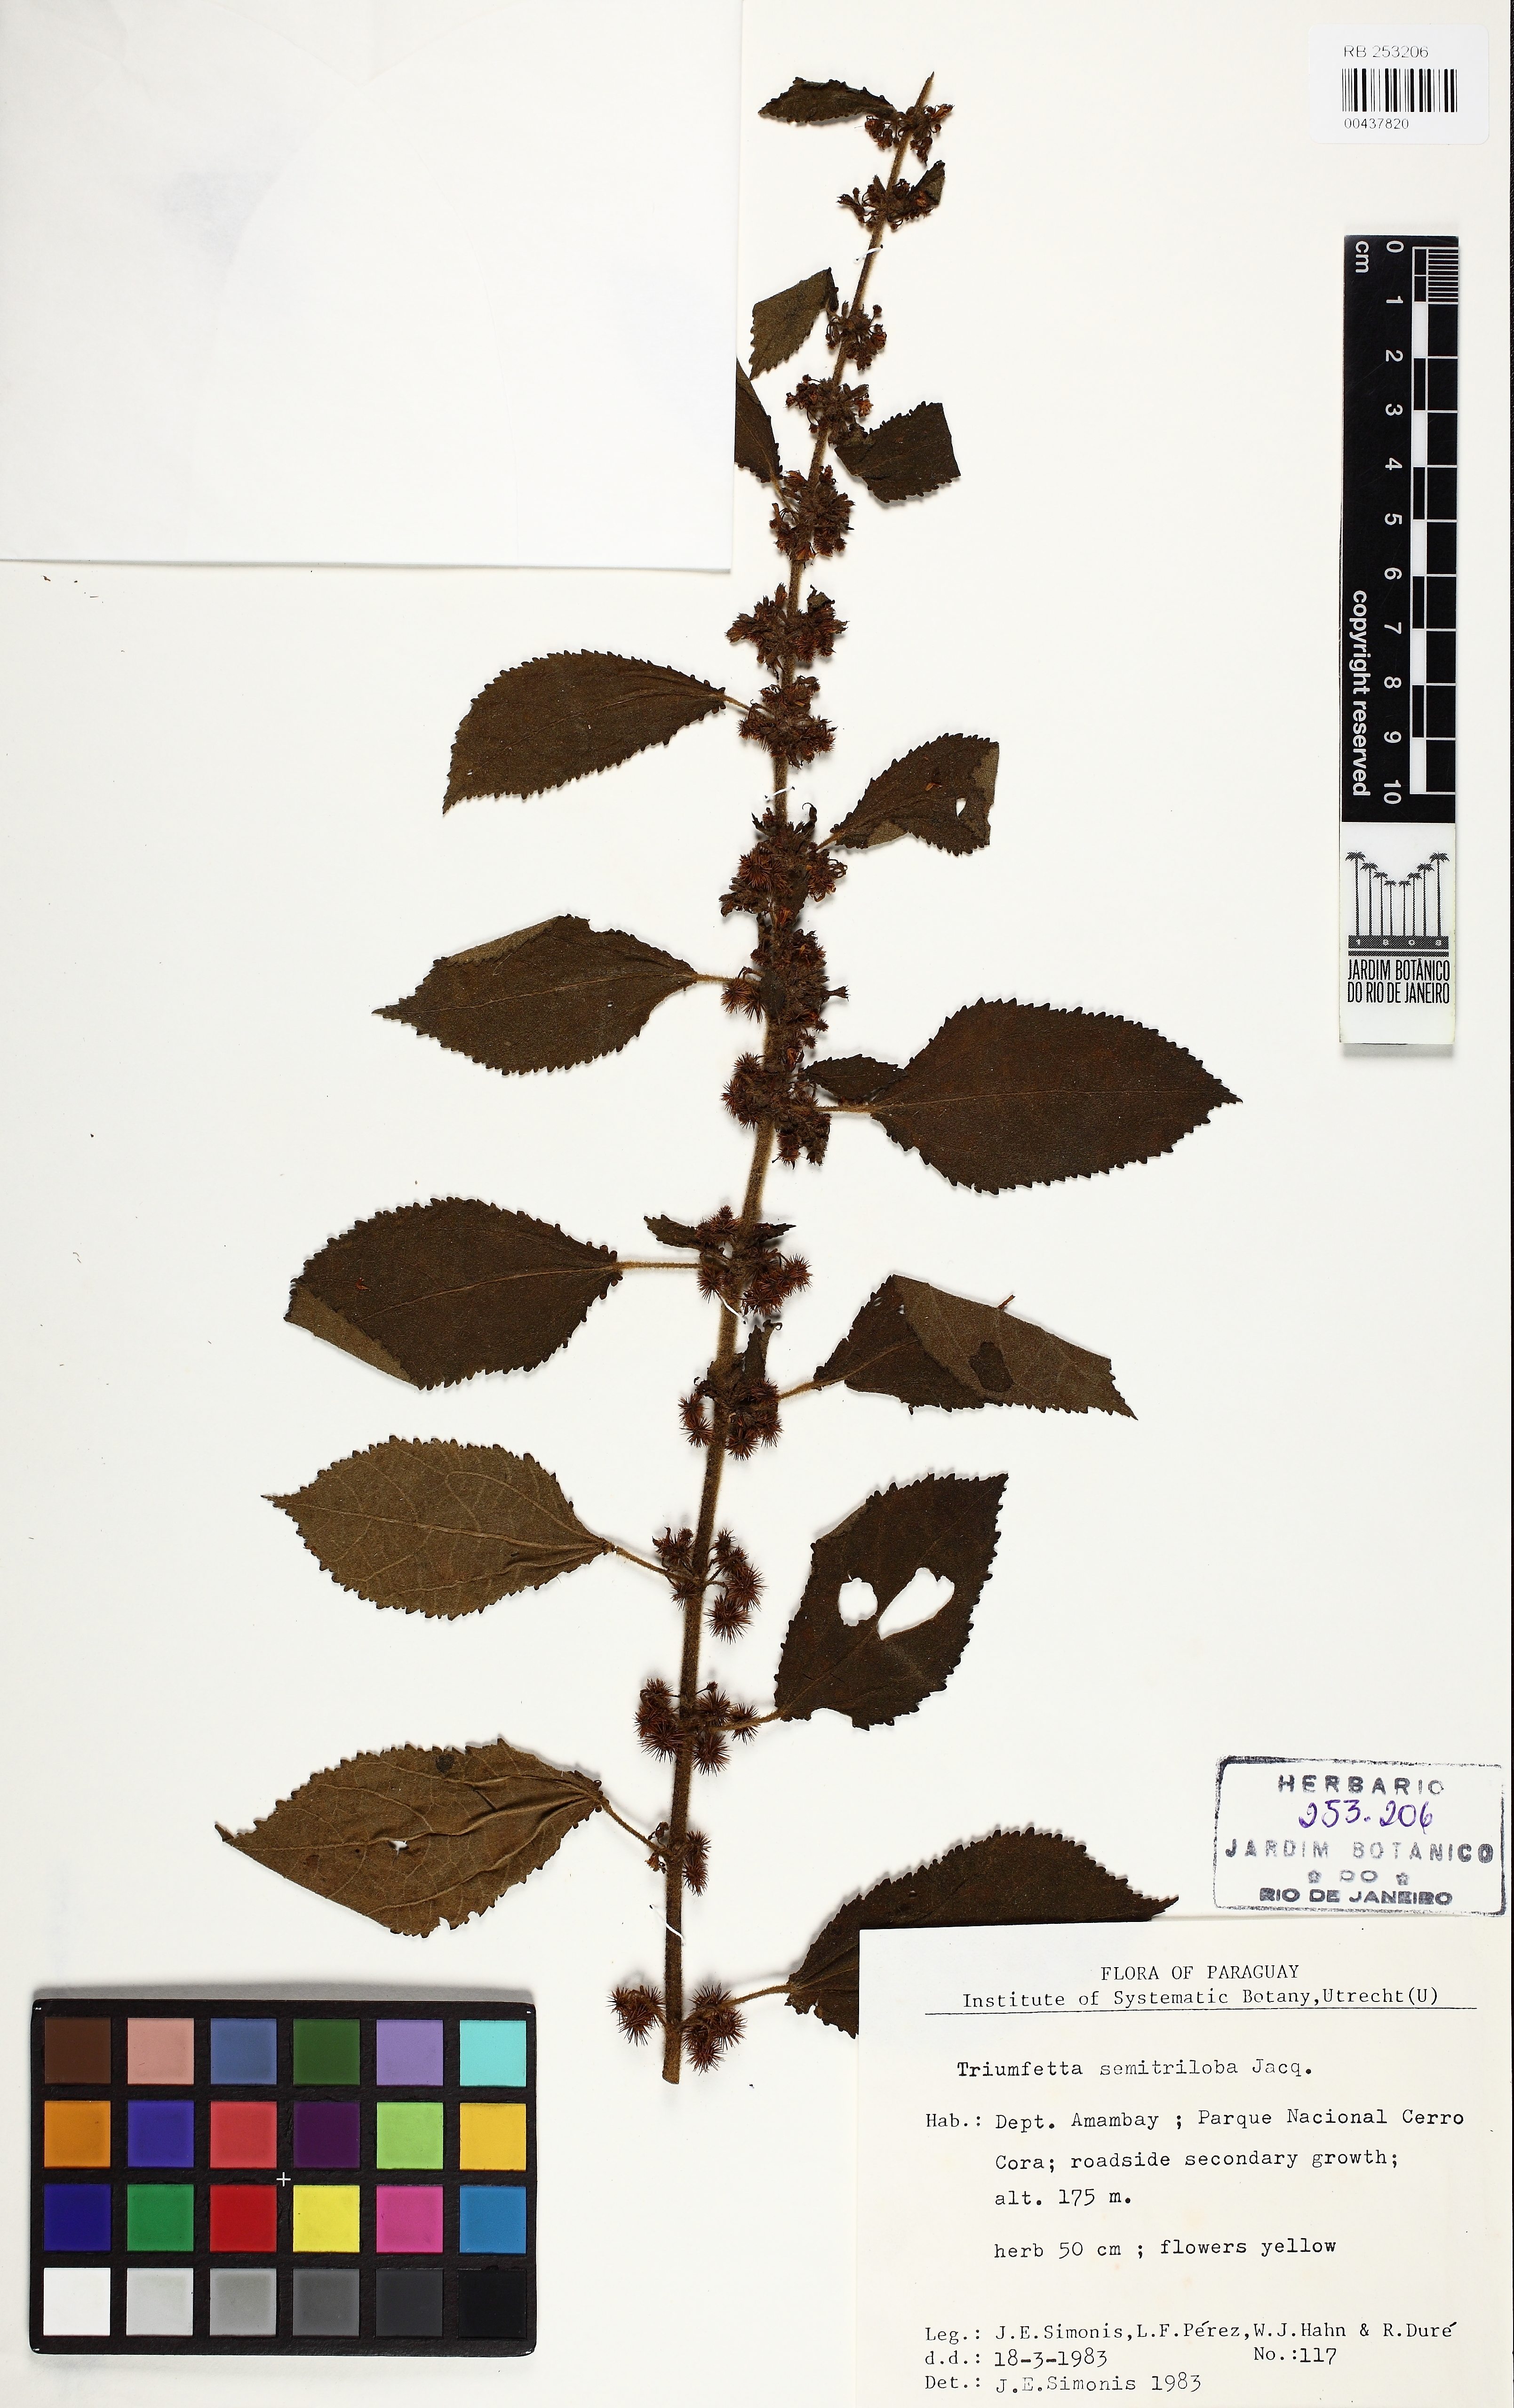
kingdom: Plantae
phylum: Tracheophyta
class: Magnoliopsida
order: Malvales
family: Malvaceae
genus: Triumfetta
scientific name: Triumfetta semitriloba
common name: Sacramento burbark
